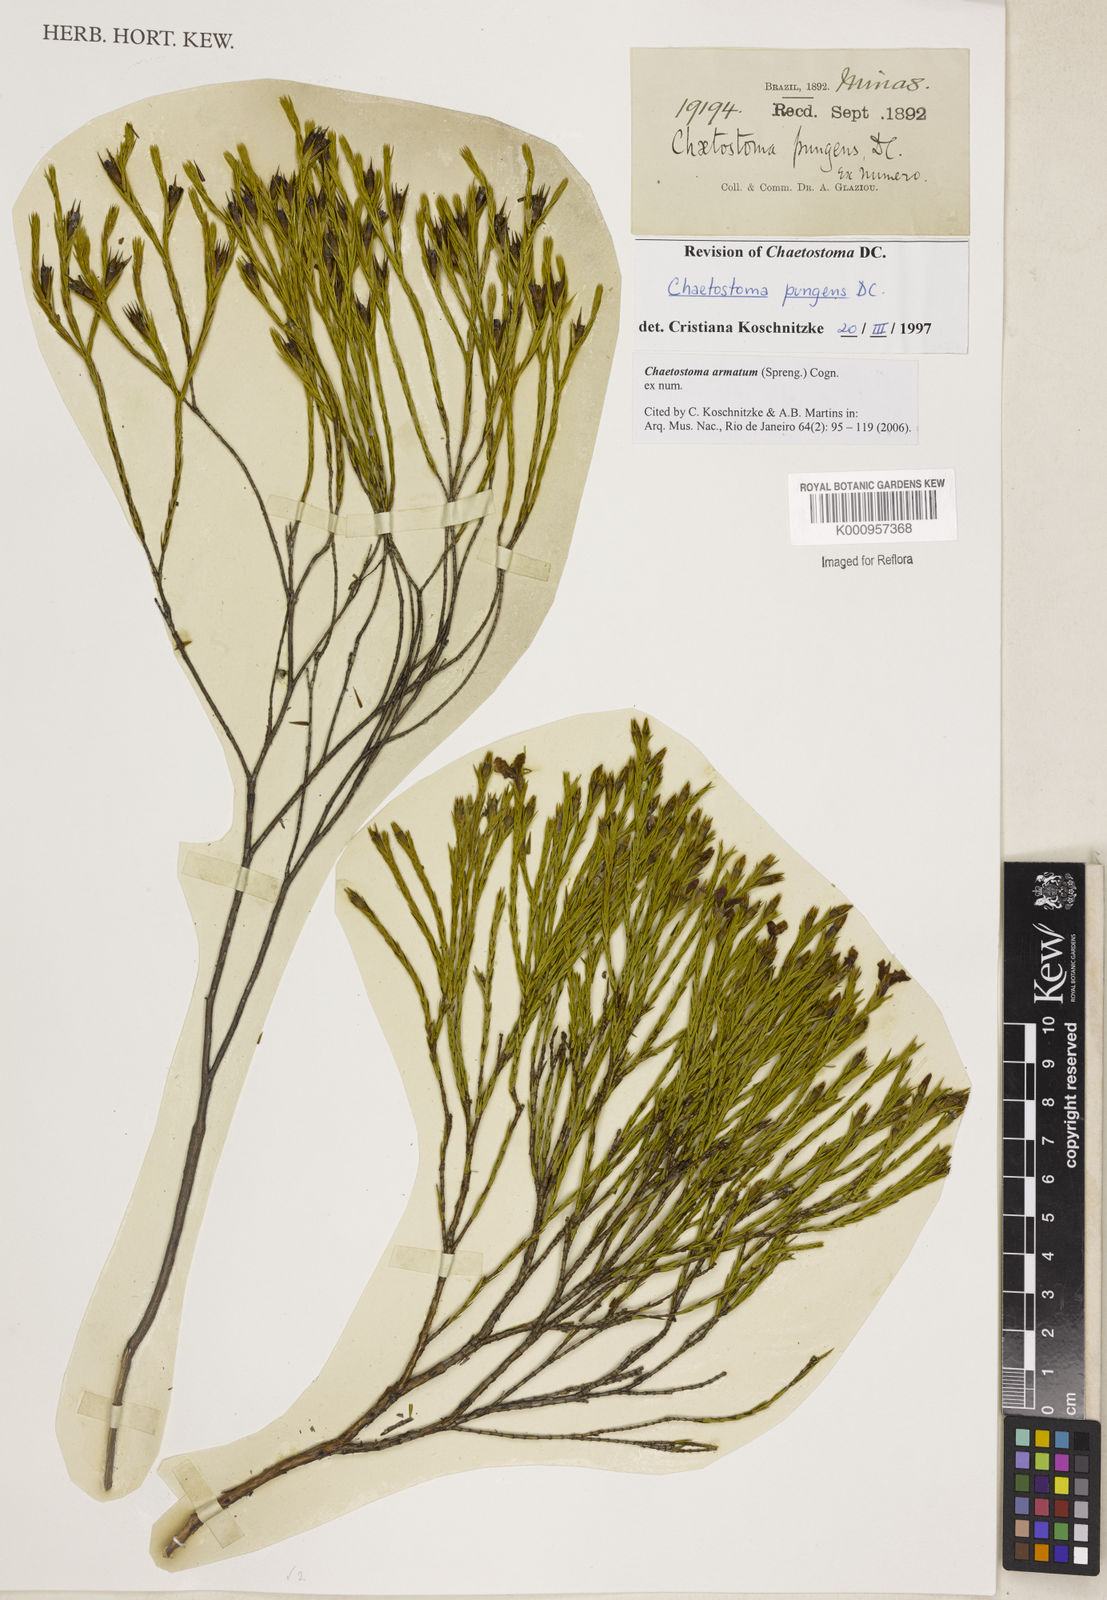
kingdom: Plantae
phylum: Tracheophyta
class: Magnoliopsida
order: Myrtales
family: Melastomataceae
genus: Microlicia
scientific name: Microlicia armata
